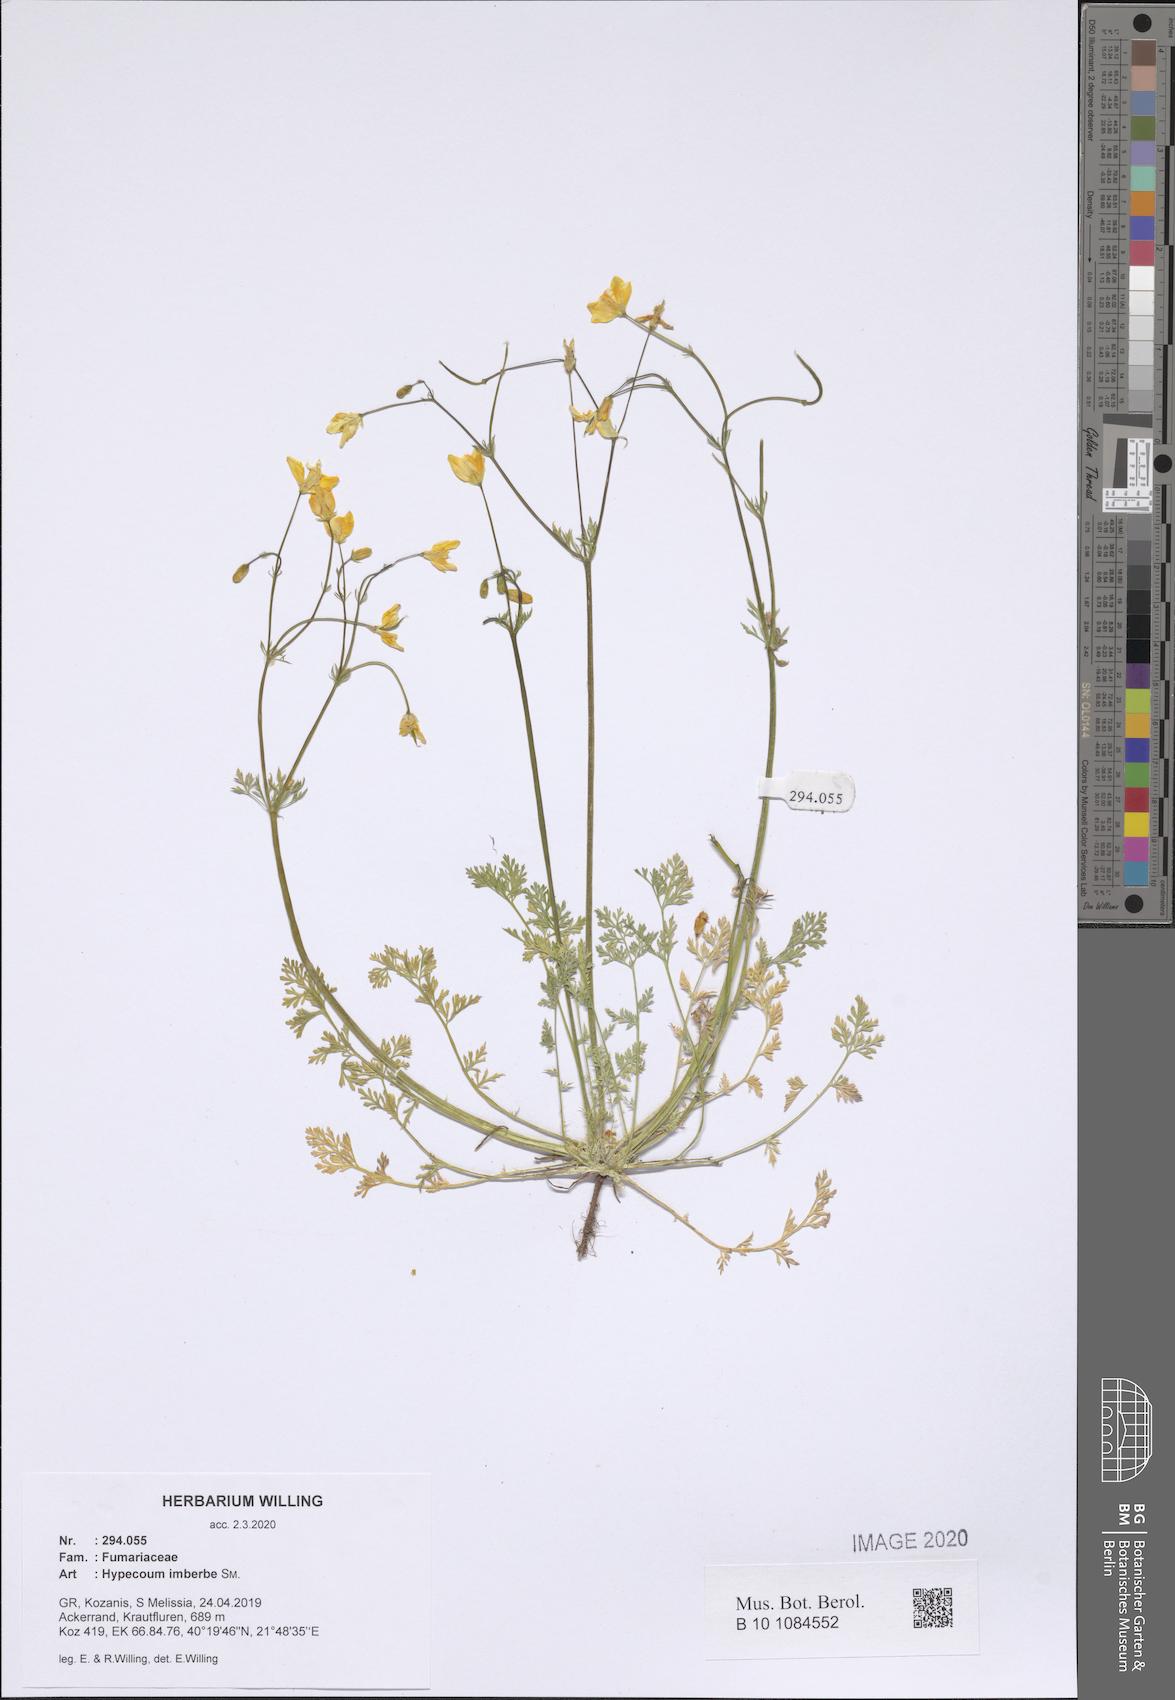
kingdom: Plantae
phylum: Tracheophyta
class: Magnoliopsida
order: Ranunculales
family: Papaveraceae
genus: Hypecoum
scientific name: Hypecoum imberbe
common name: Sicklefruit hypecoum
